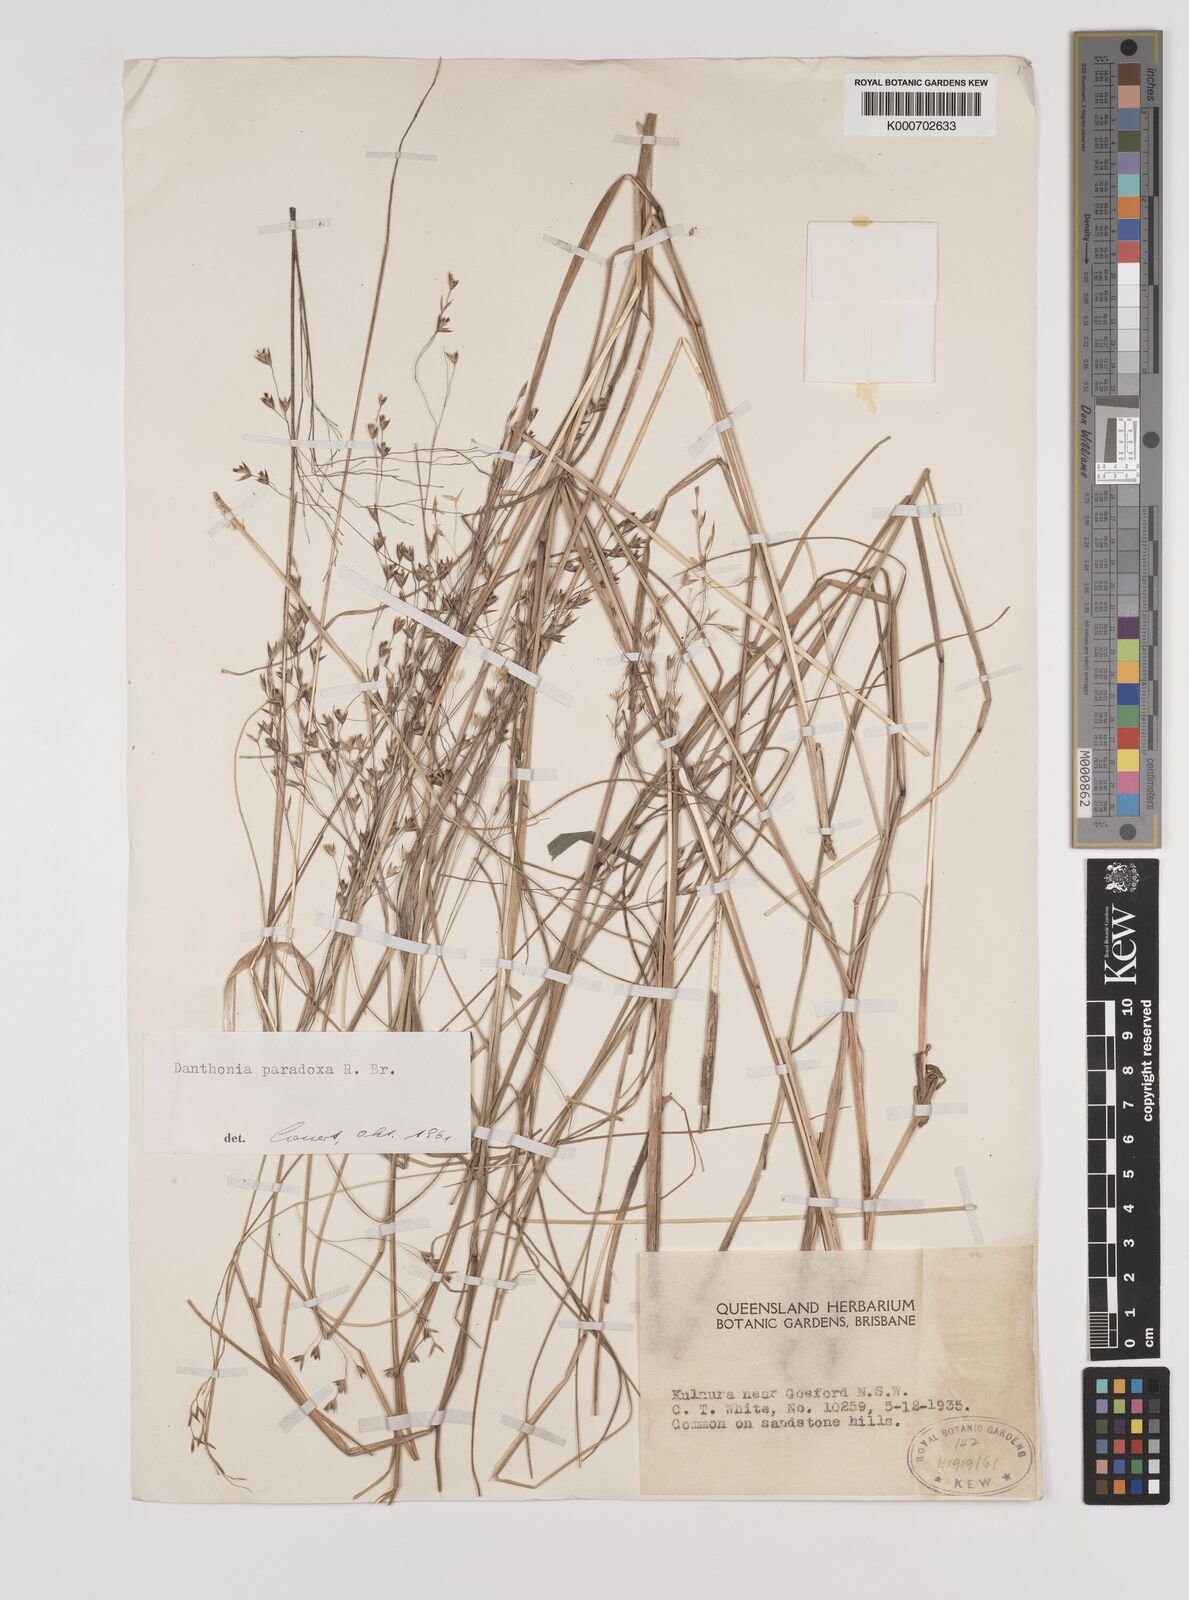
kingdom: Plantae
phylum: Tracheophyta
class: Liliopsida
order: Poales
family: Poaceae
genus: Plinthanthesis
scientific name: Plinthanthesis paradoxa
